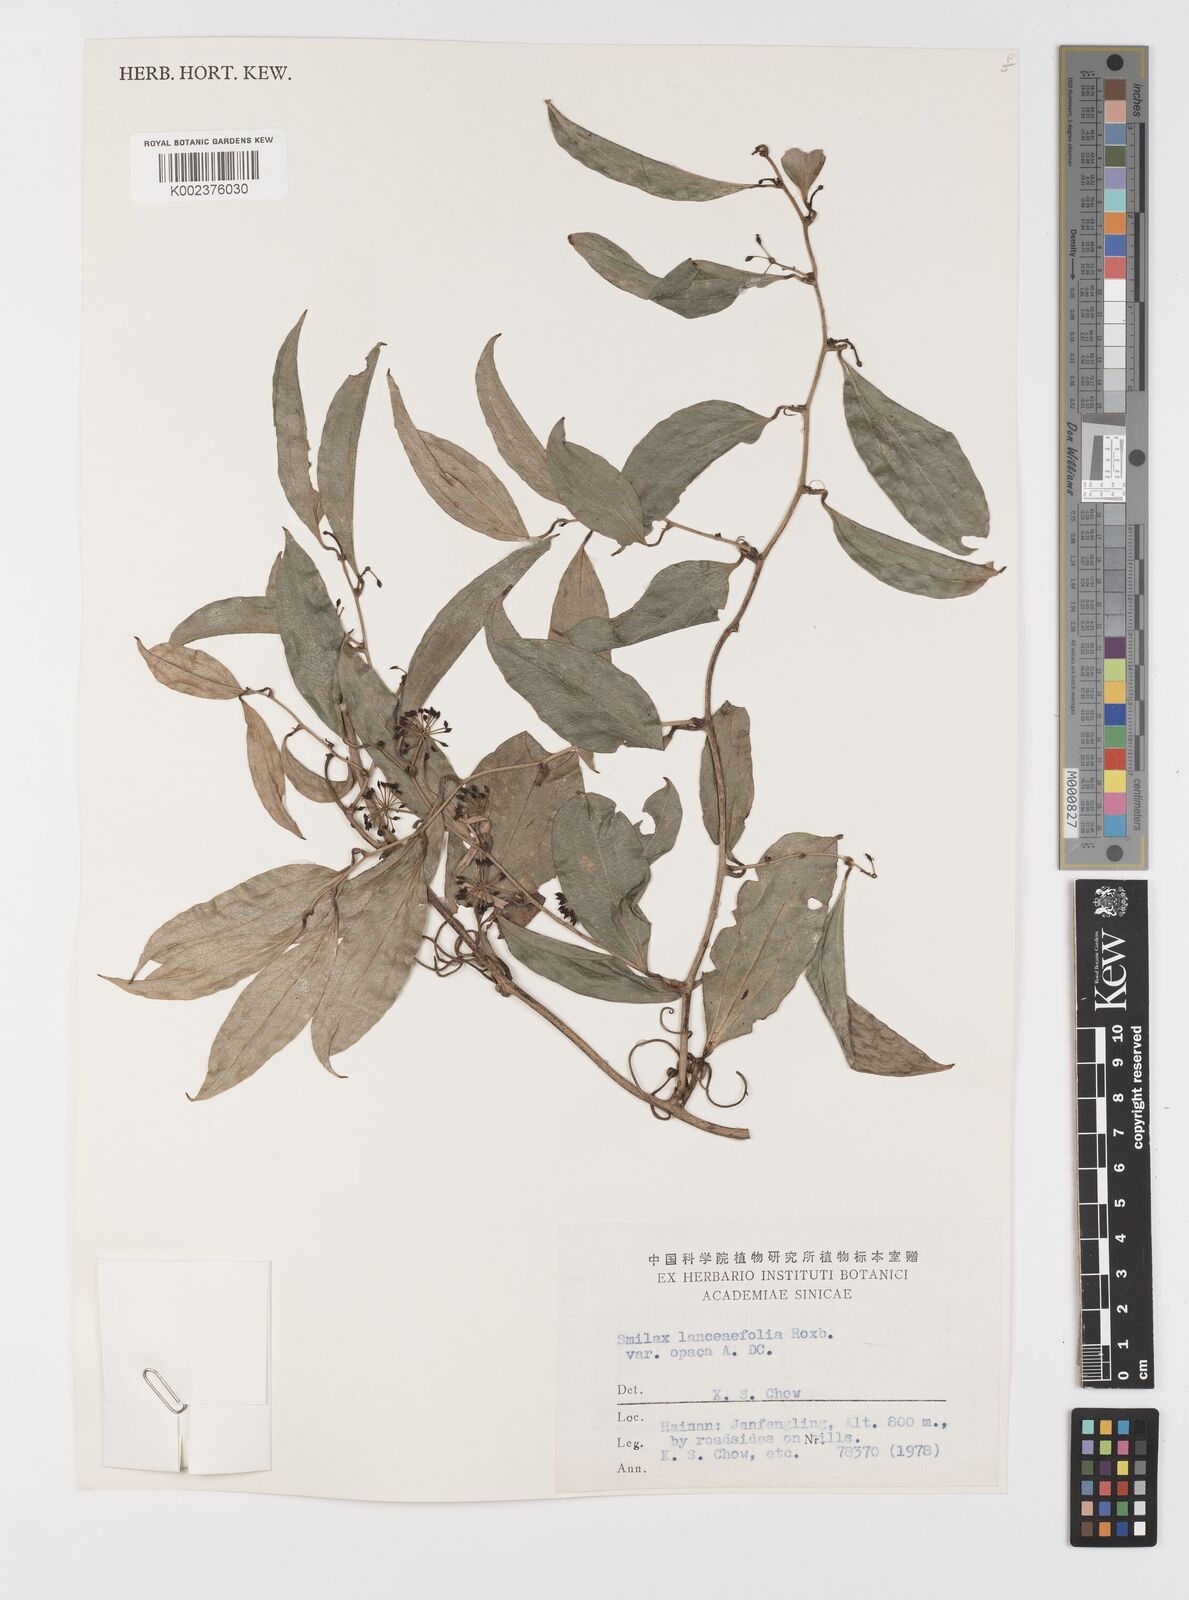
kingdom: Plantae
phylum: Tracheophyta
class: Liliopsida
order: Liliales
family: Smilacaceae
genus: Smilax
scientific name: Smilax laevis
